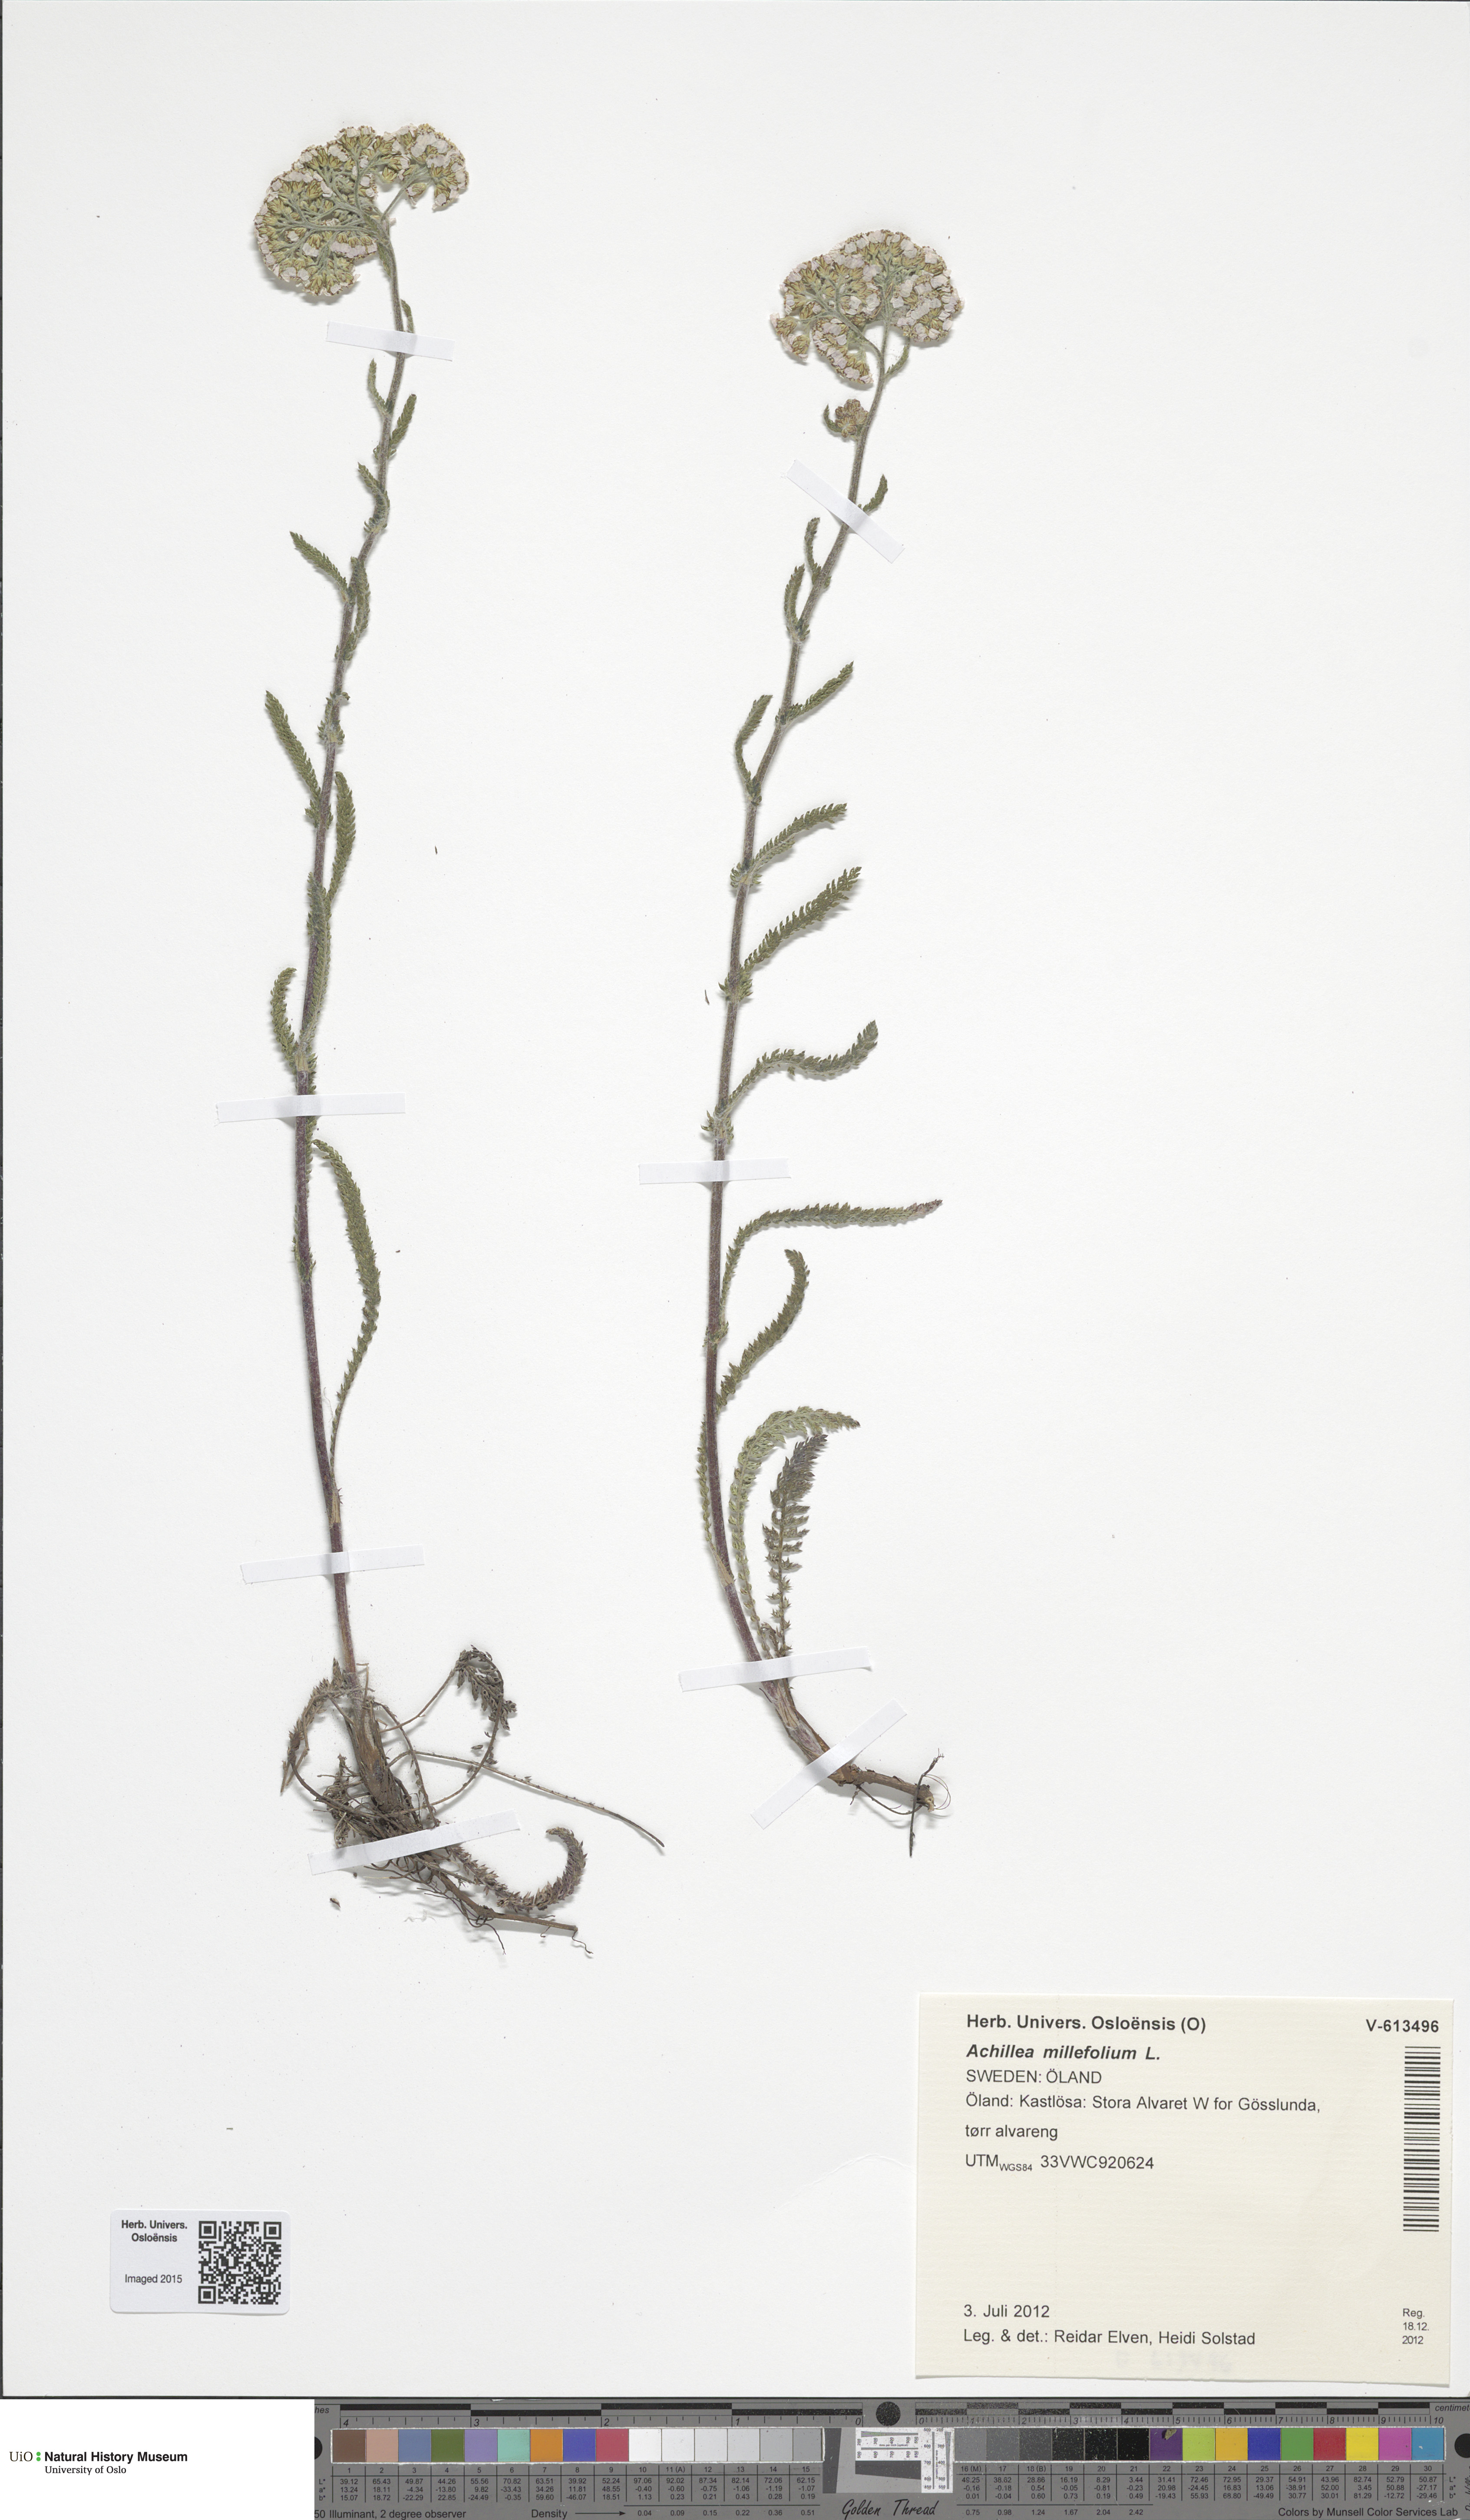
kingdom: Plantae
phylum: Tracheophyta
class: Magnoliopsida
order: Asterales
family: Asteraceae
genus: Achillea
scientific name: Achillea millefolium
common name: Yarrow
